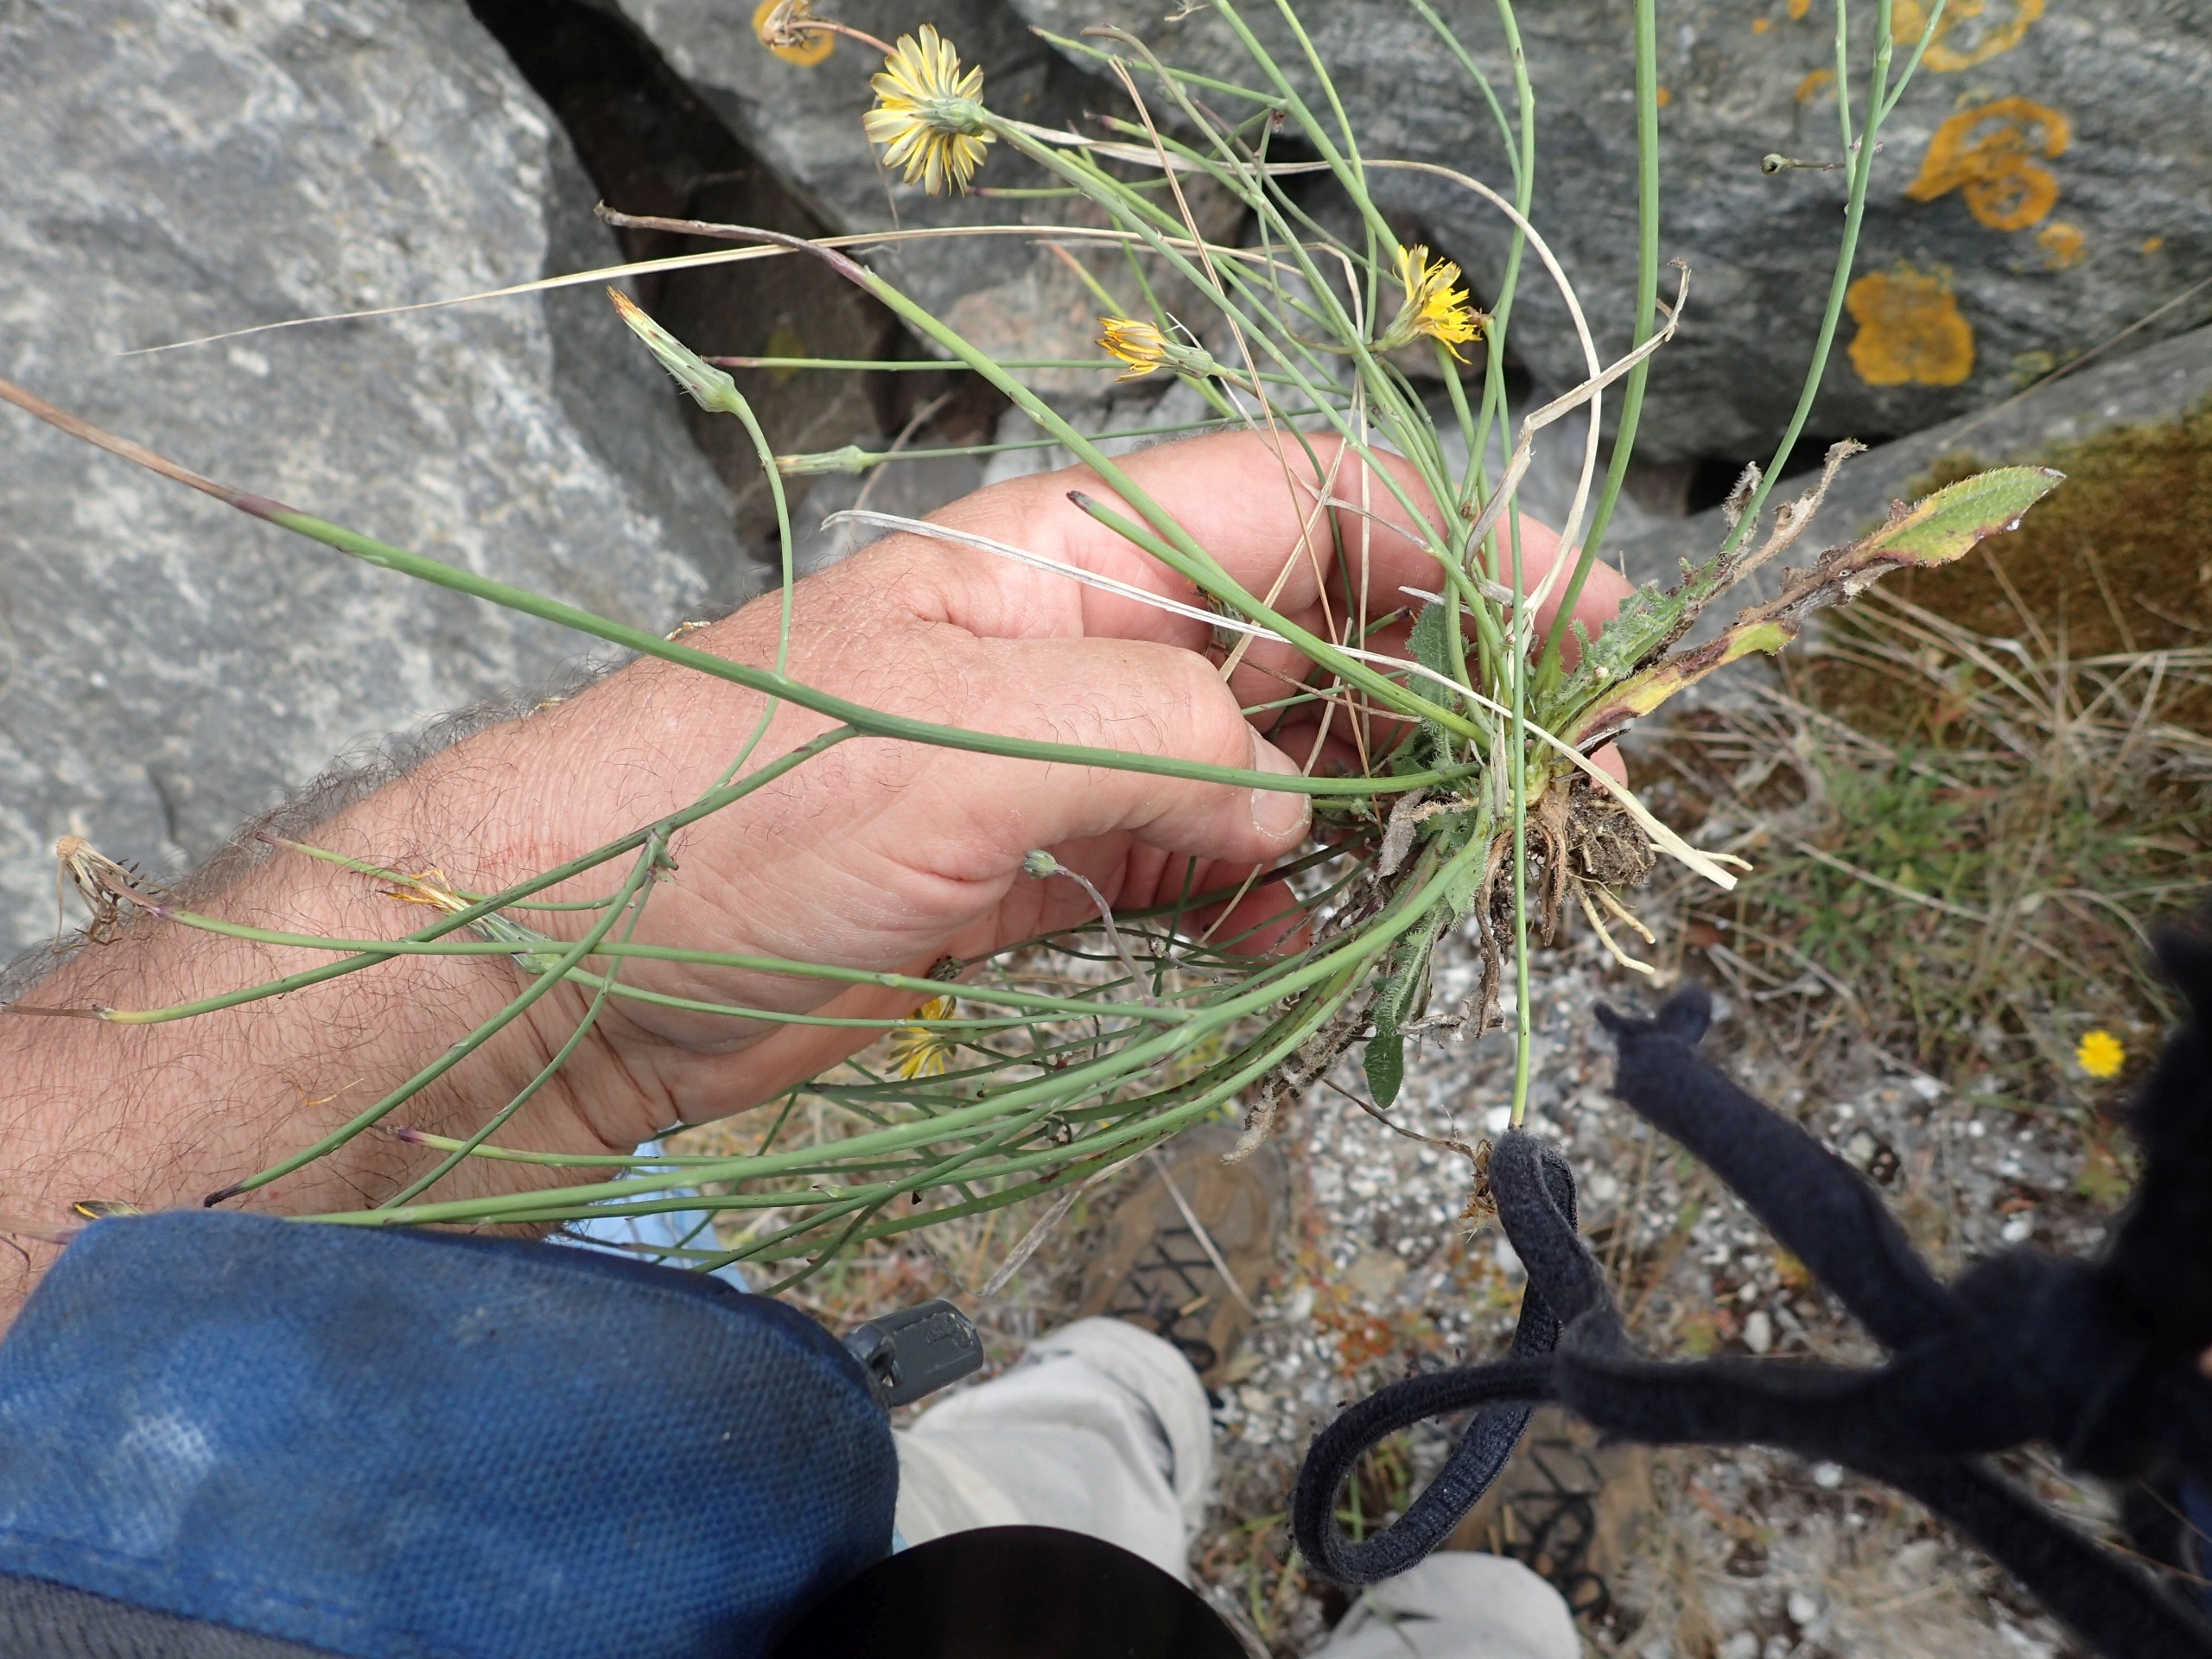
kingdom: Plantae
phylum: Tracheophyta
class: Magnoliopsida
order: Asterales
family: Asteraceae
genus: Hypochaeris
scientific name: Hypochaeris radicata
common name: Almindelig kongepen
